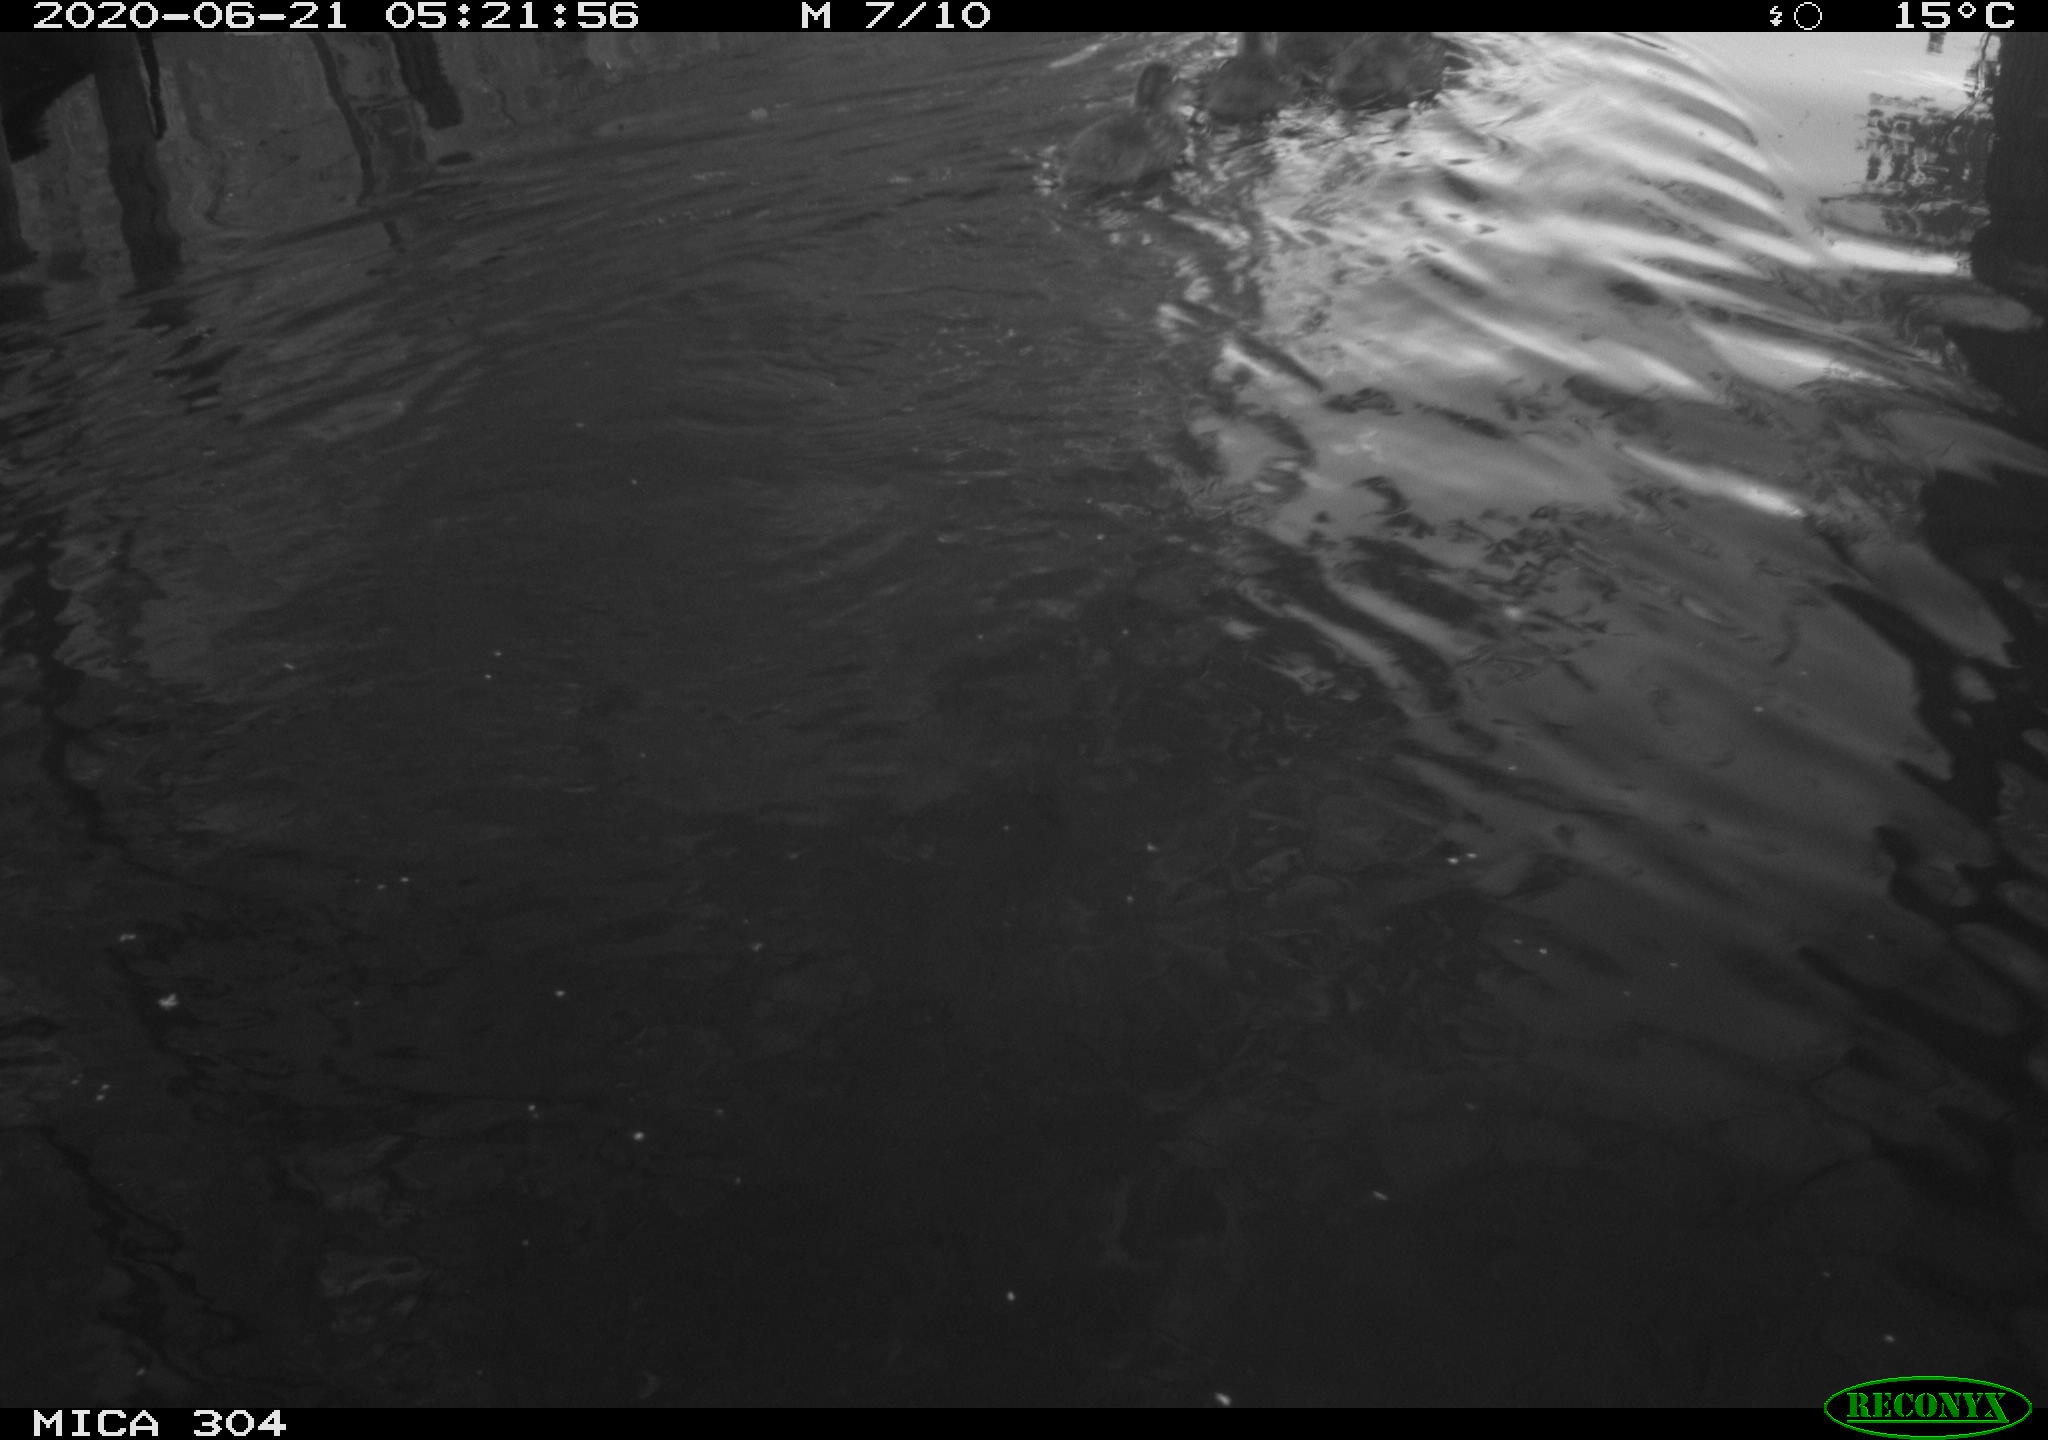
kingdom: Animalia
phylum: Chordata
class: Aves
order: Anseriformes
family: Anatidae
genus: Anas
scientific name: Anas platyrhynchos
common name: Mallard
